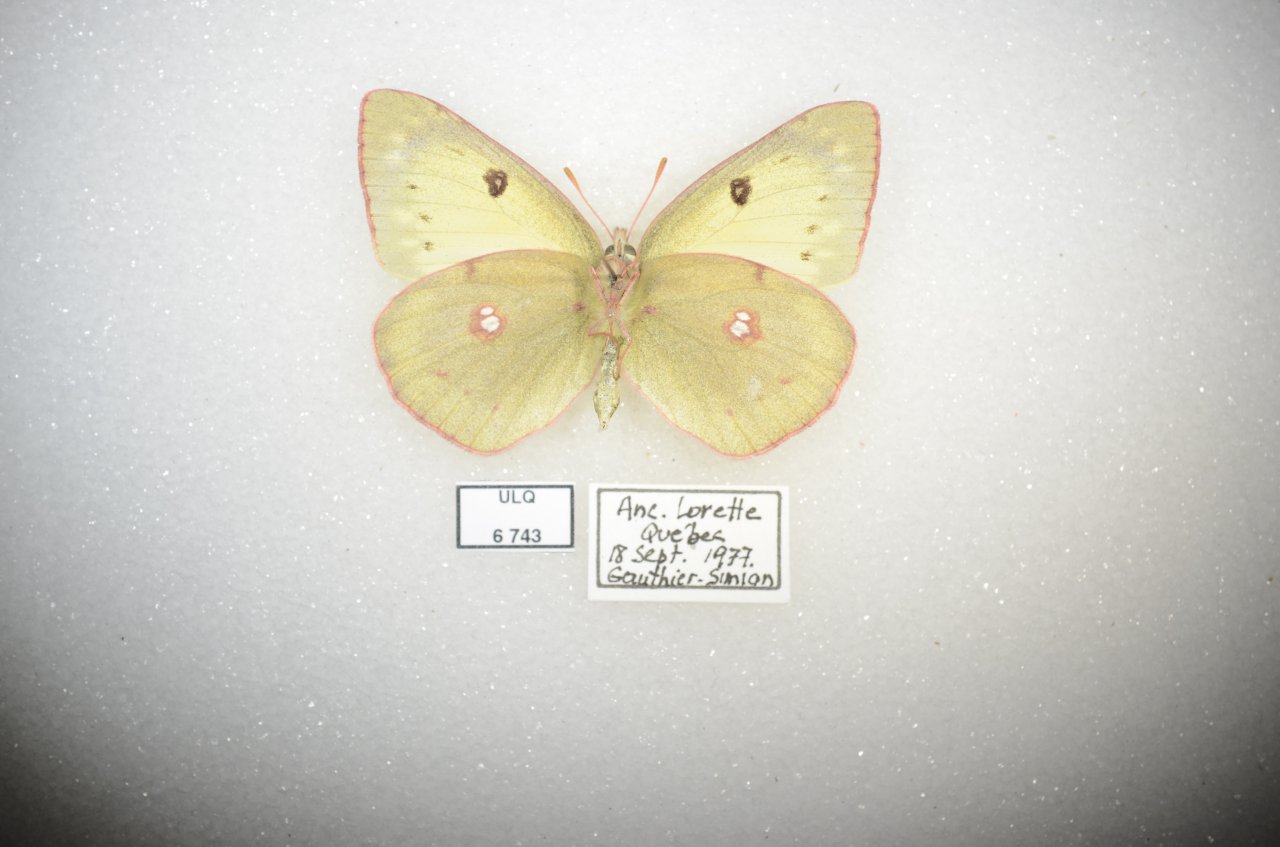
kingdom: Animalia
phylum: Arthropoda
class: Insecta
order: Lepidoptera
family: Pieridae
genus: Colias
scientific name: Colias philodice
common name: Clouded Sulphur
